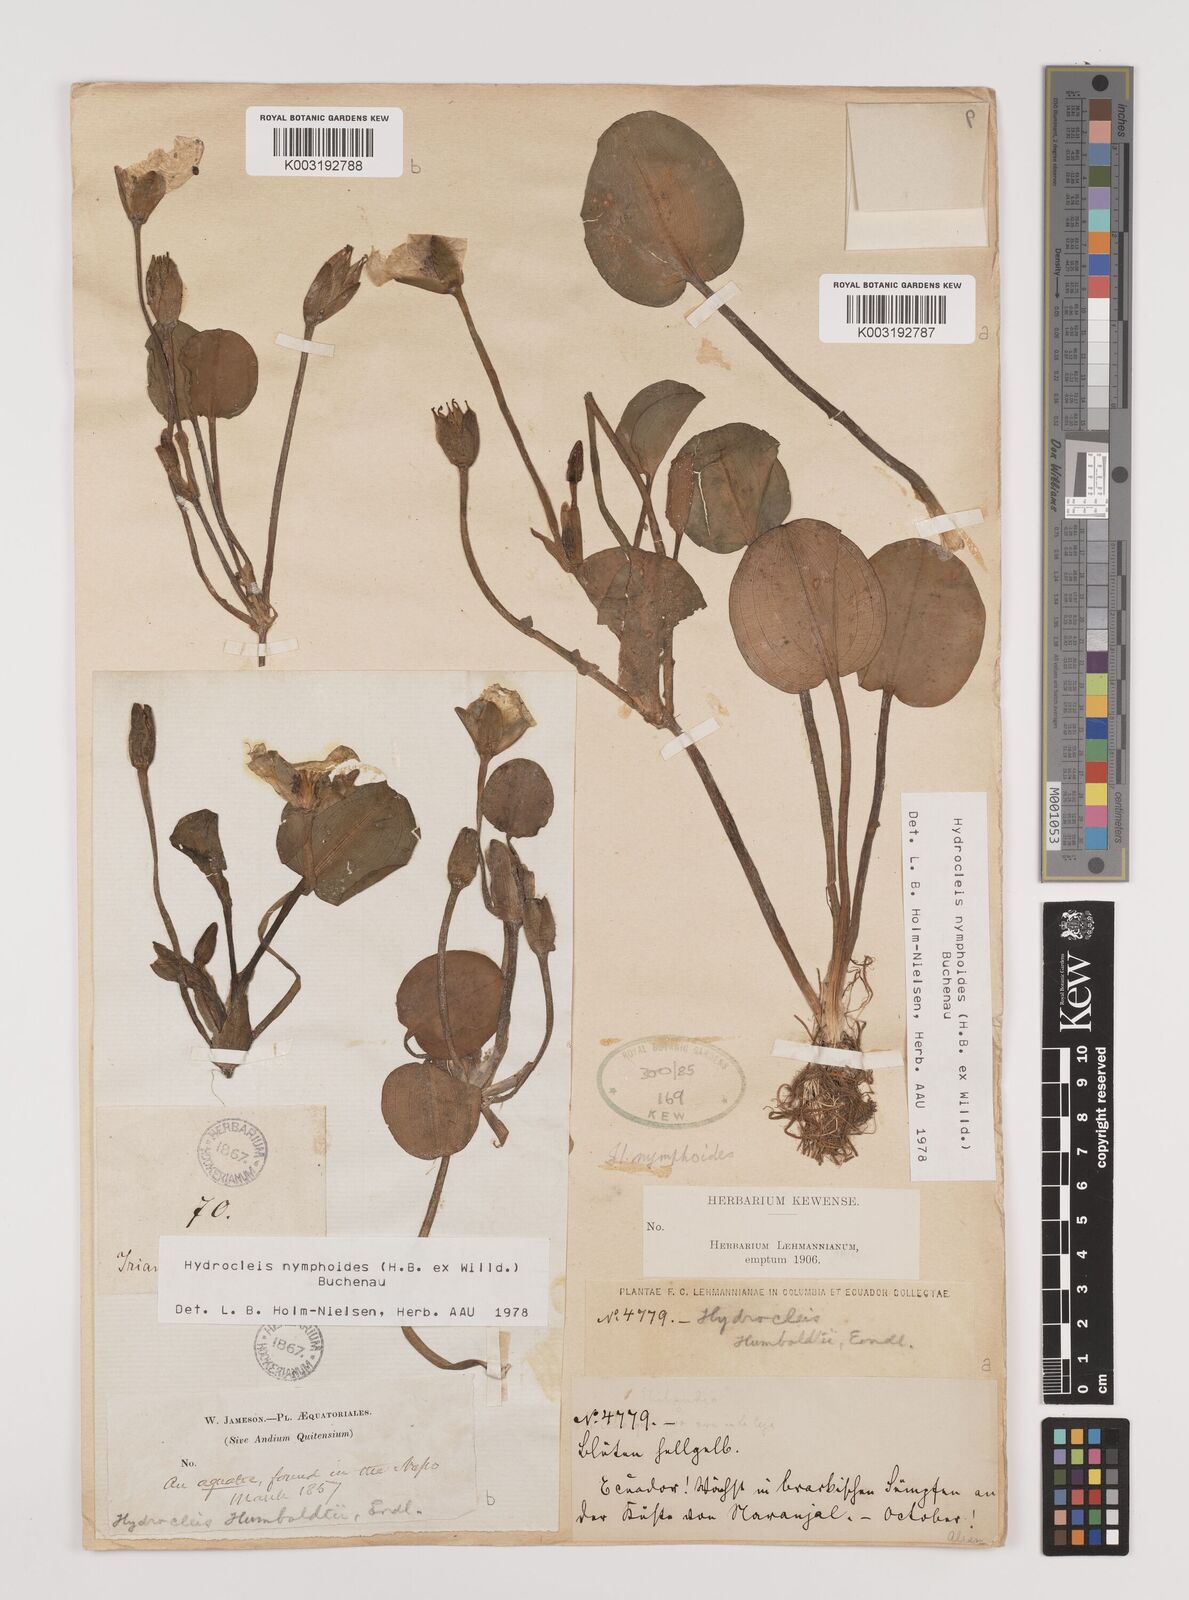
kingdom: Plantae
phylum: Tracheophyta
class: Liliopsida
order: Alismatales
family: Alismataceae
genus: Hydrocleys
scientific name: Hydrocleys nymphoides
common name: Water-poppy
